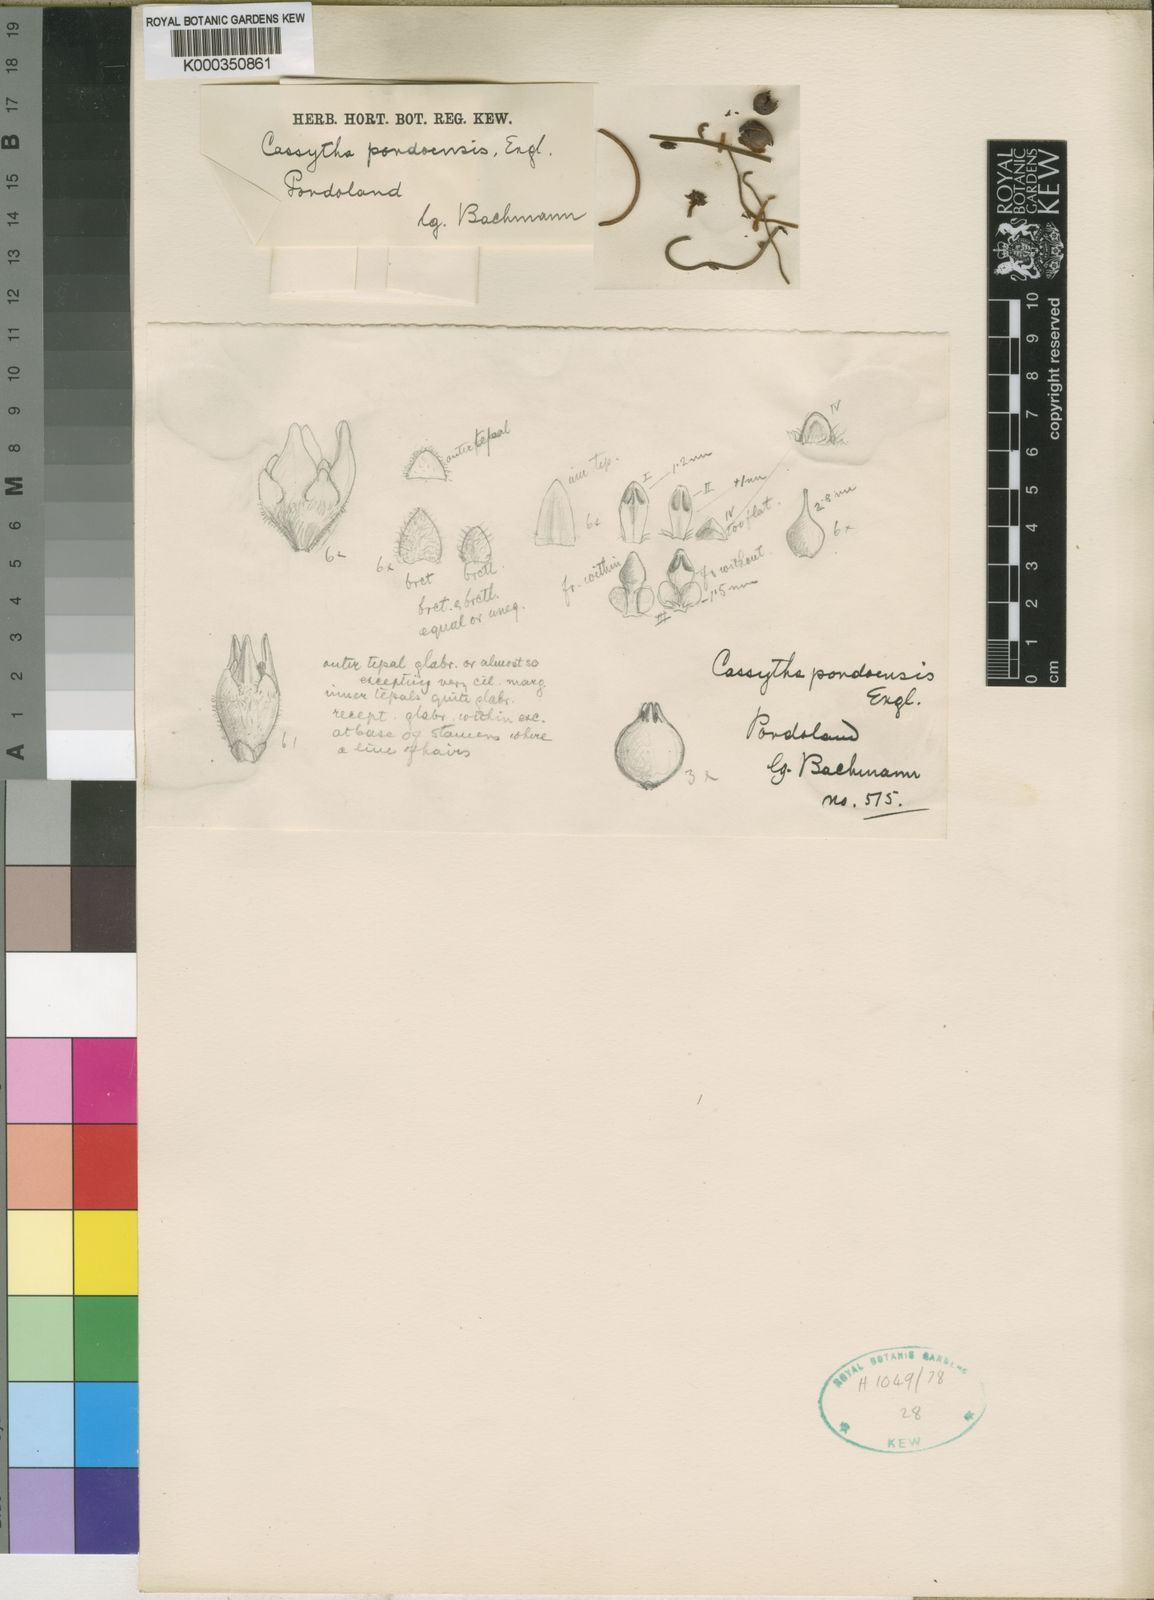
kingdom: Plantae
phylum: Tracheophyta
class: Magnoliopsida
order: Laurales
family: Lauraceae
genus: Cassytha
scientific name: Cassytha pondoensis
